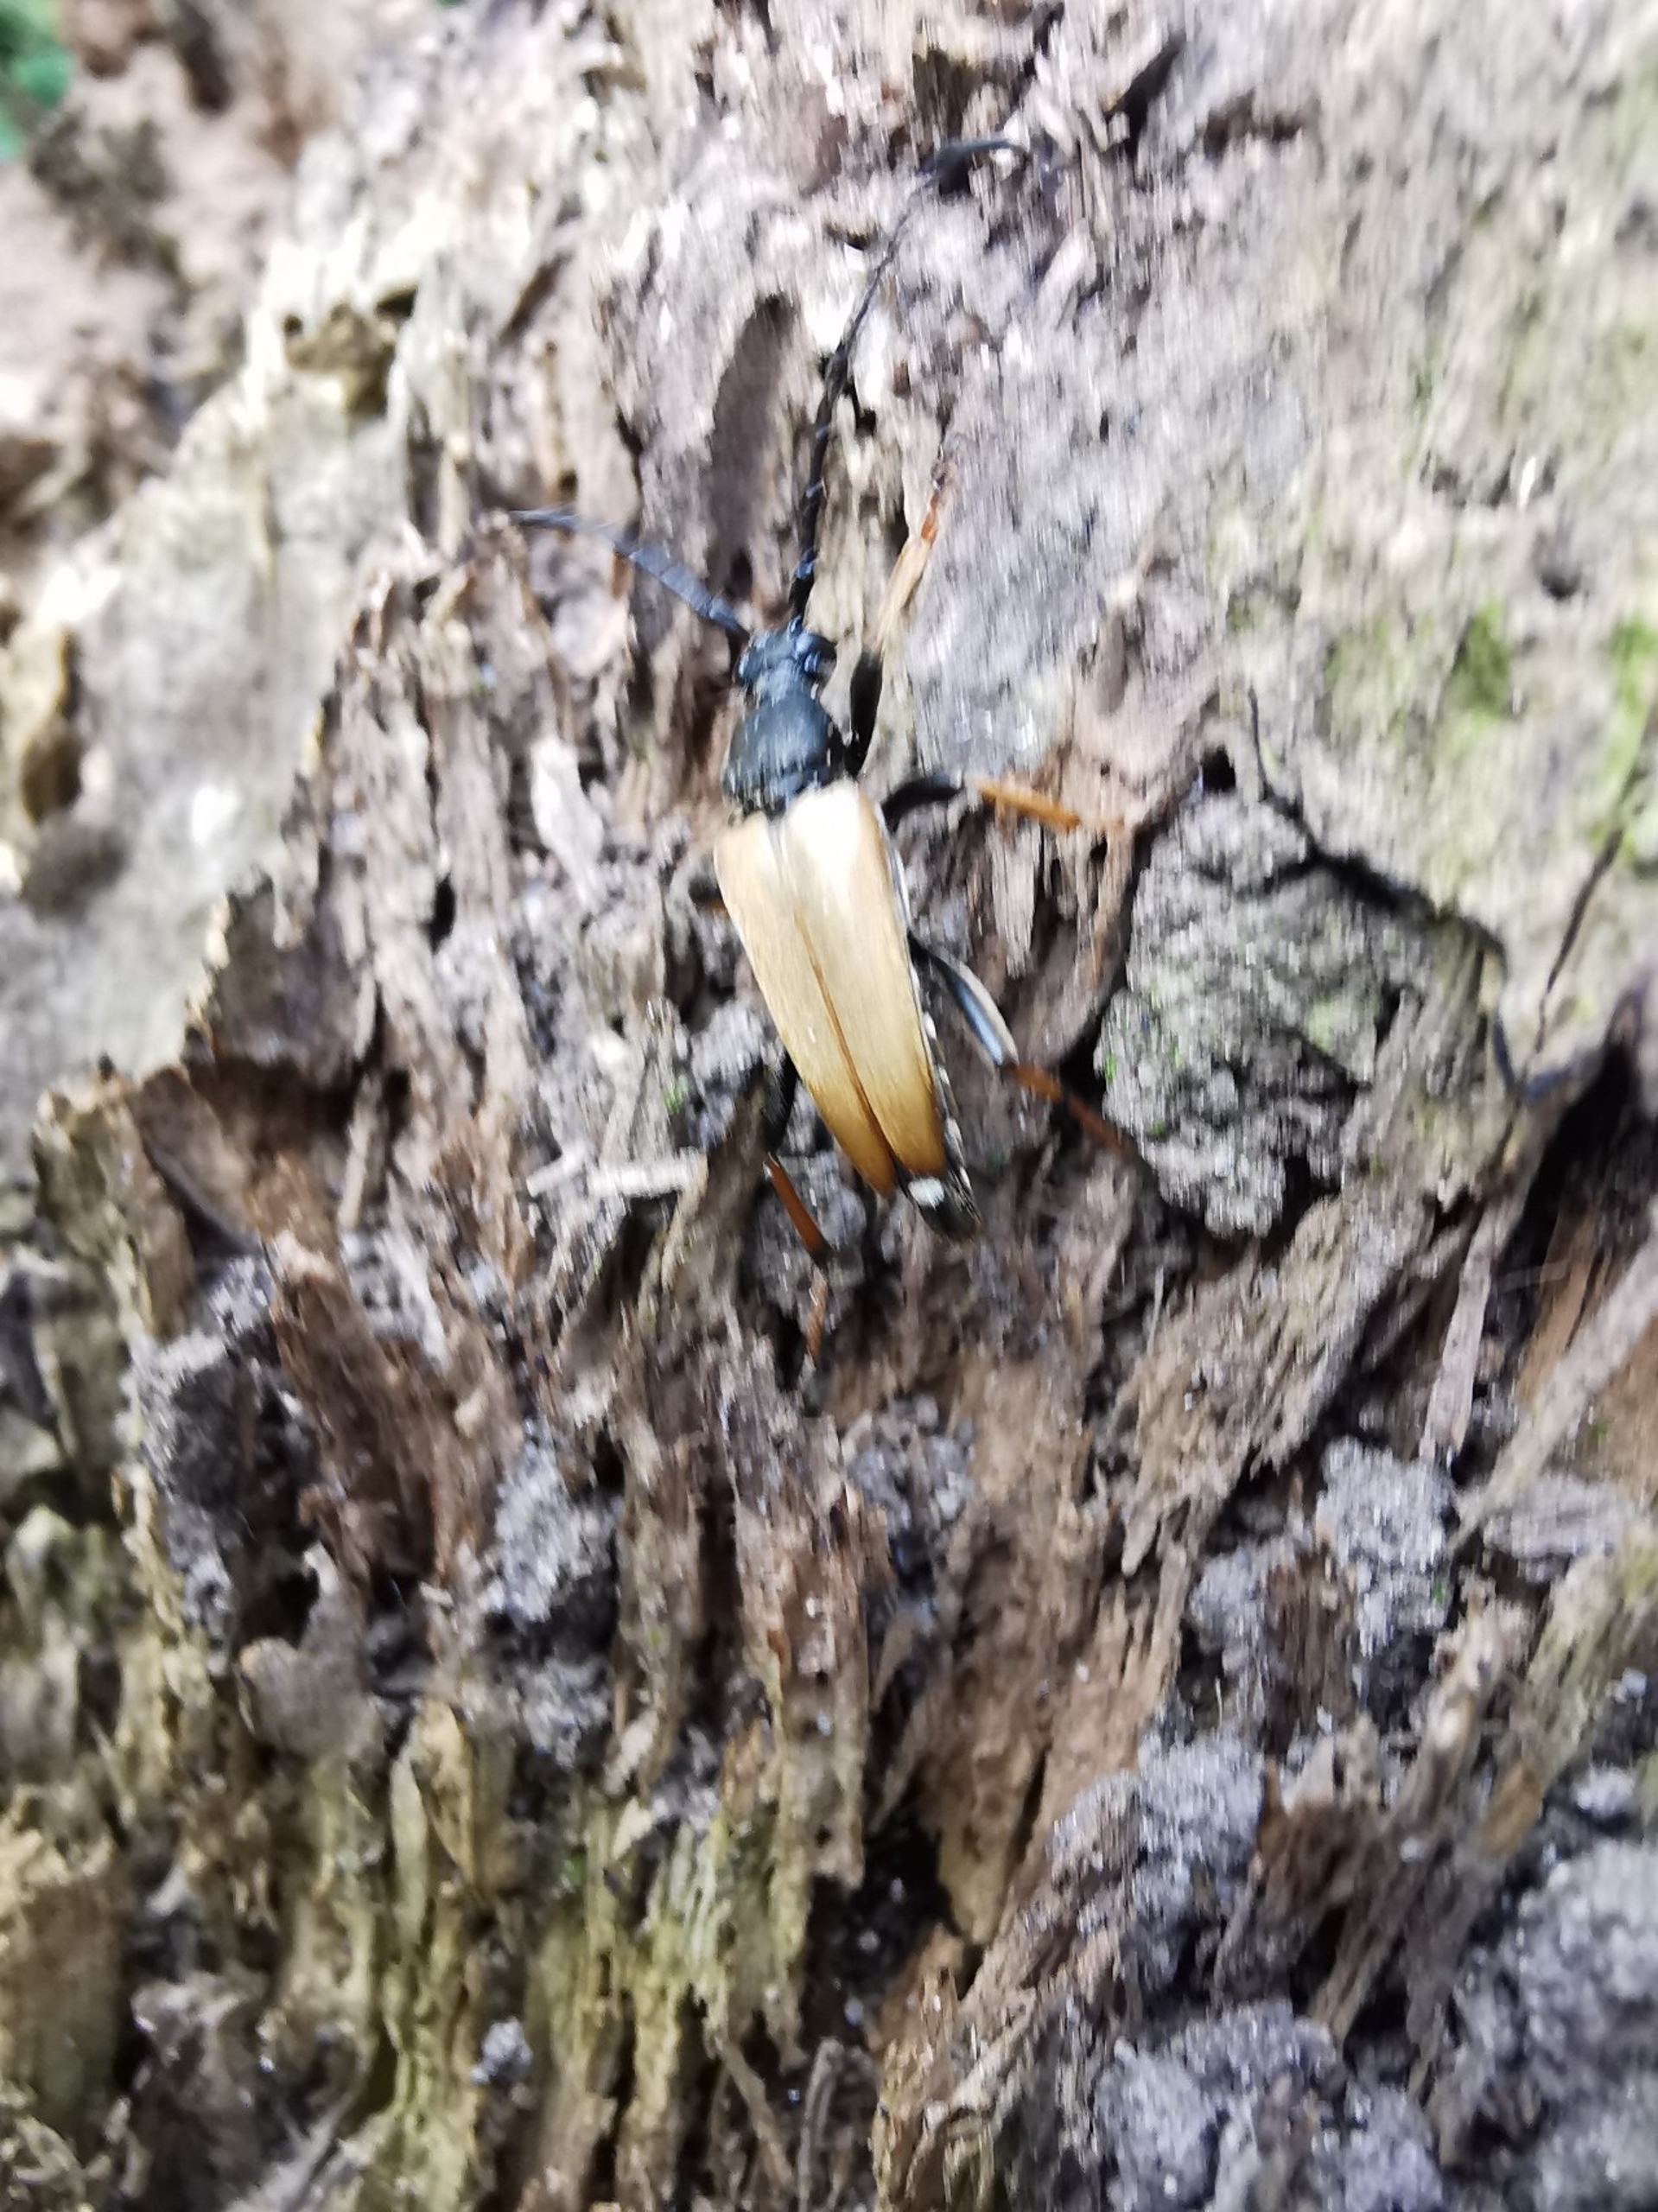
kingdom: Animalia
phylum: Arthropoda
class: Insecta
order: Coleoptera
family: Cerambycidae
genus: Stictoleptura
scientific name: Stictoleptura rubra
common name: Rød blomsterbuk
